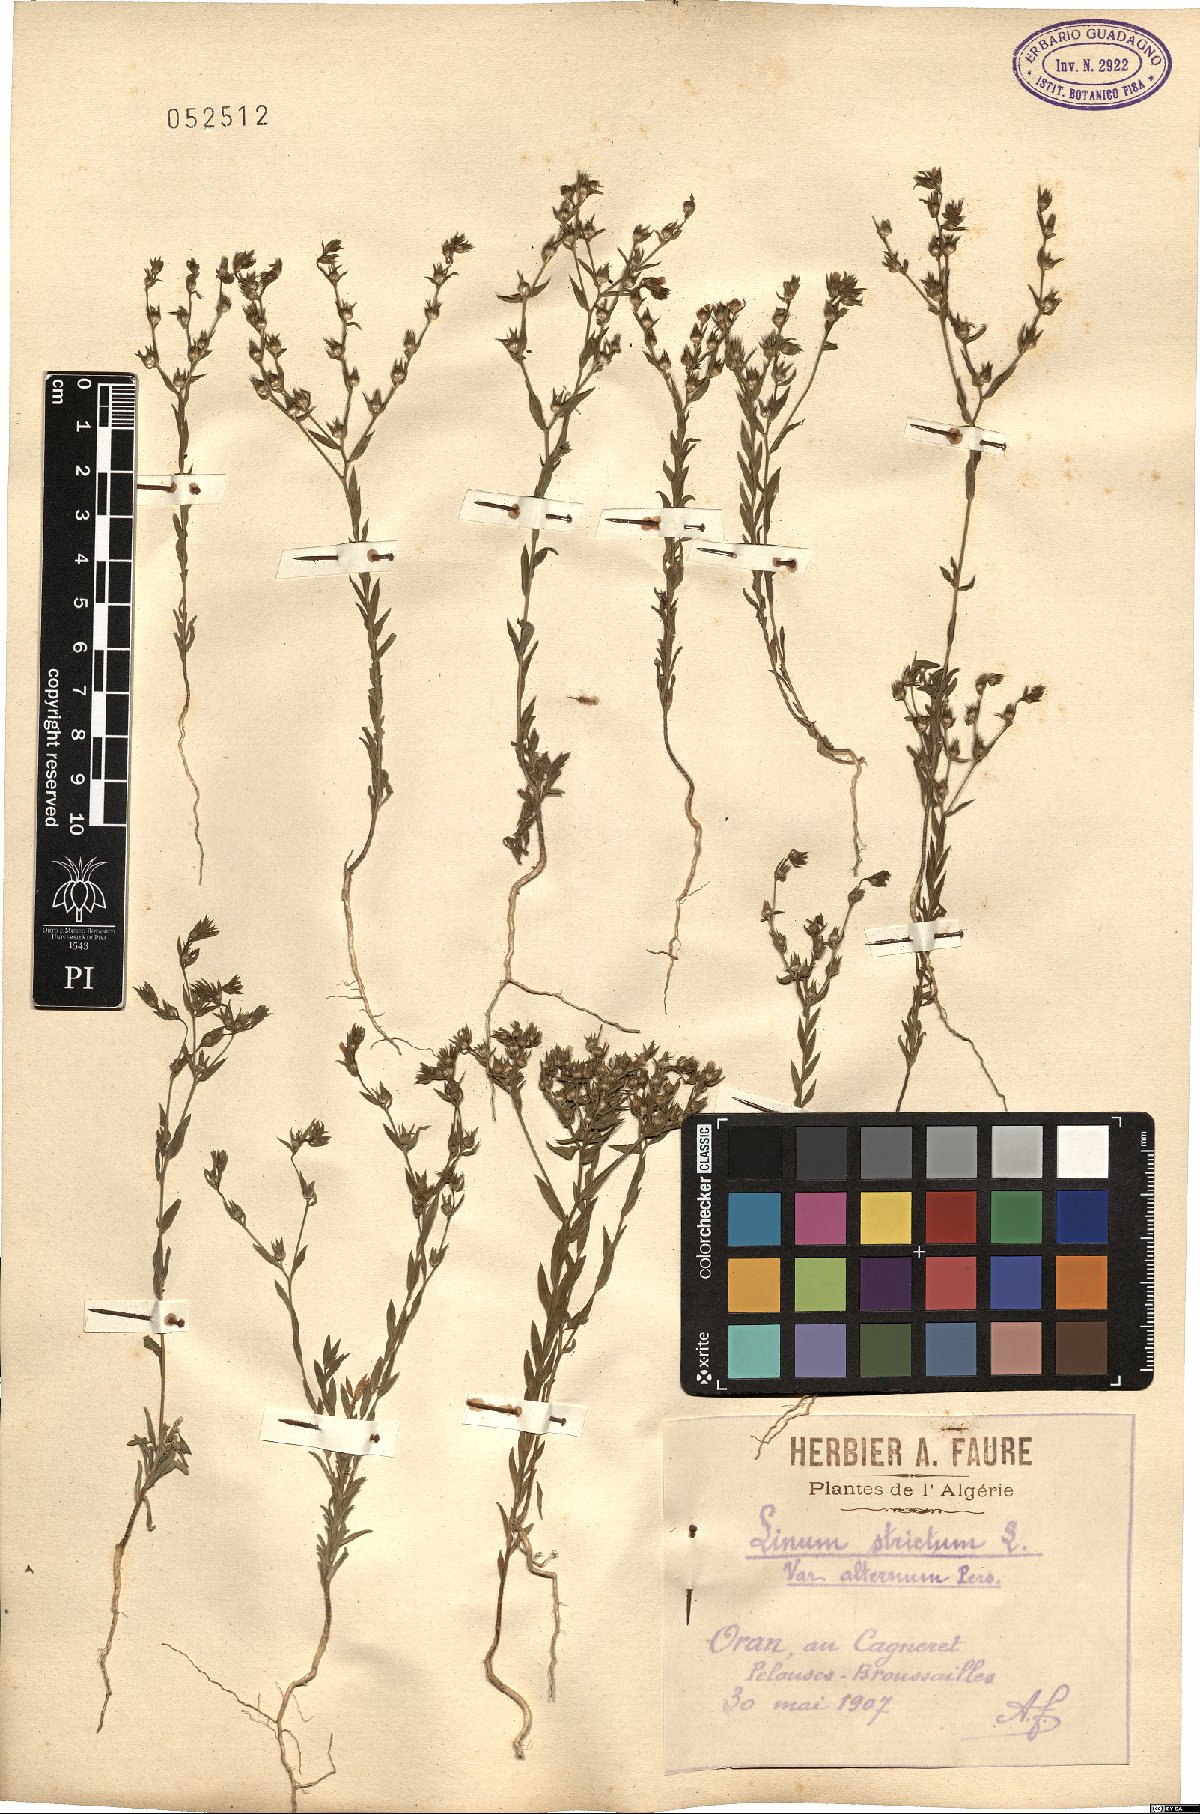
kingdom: Plantae
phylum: Tracheophyta
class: Magnoliopsida
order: Malpighiales
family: Linaceae
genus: Linum
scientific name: Linum strictum
